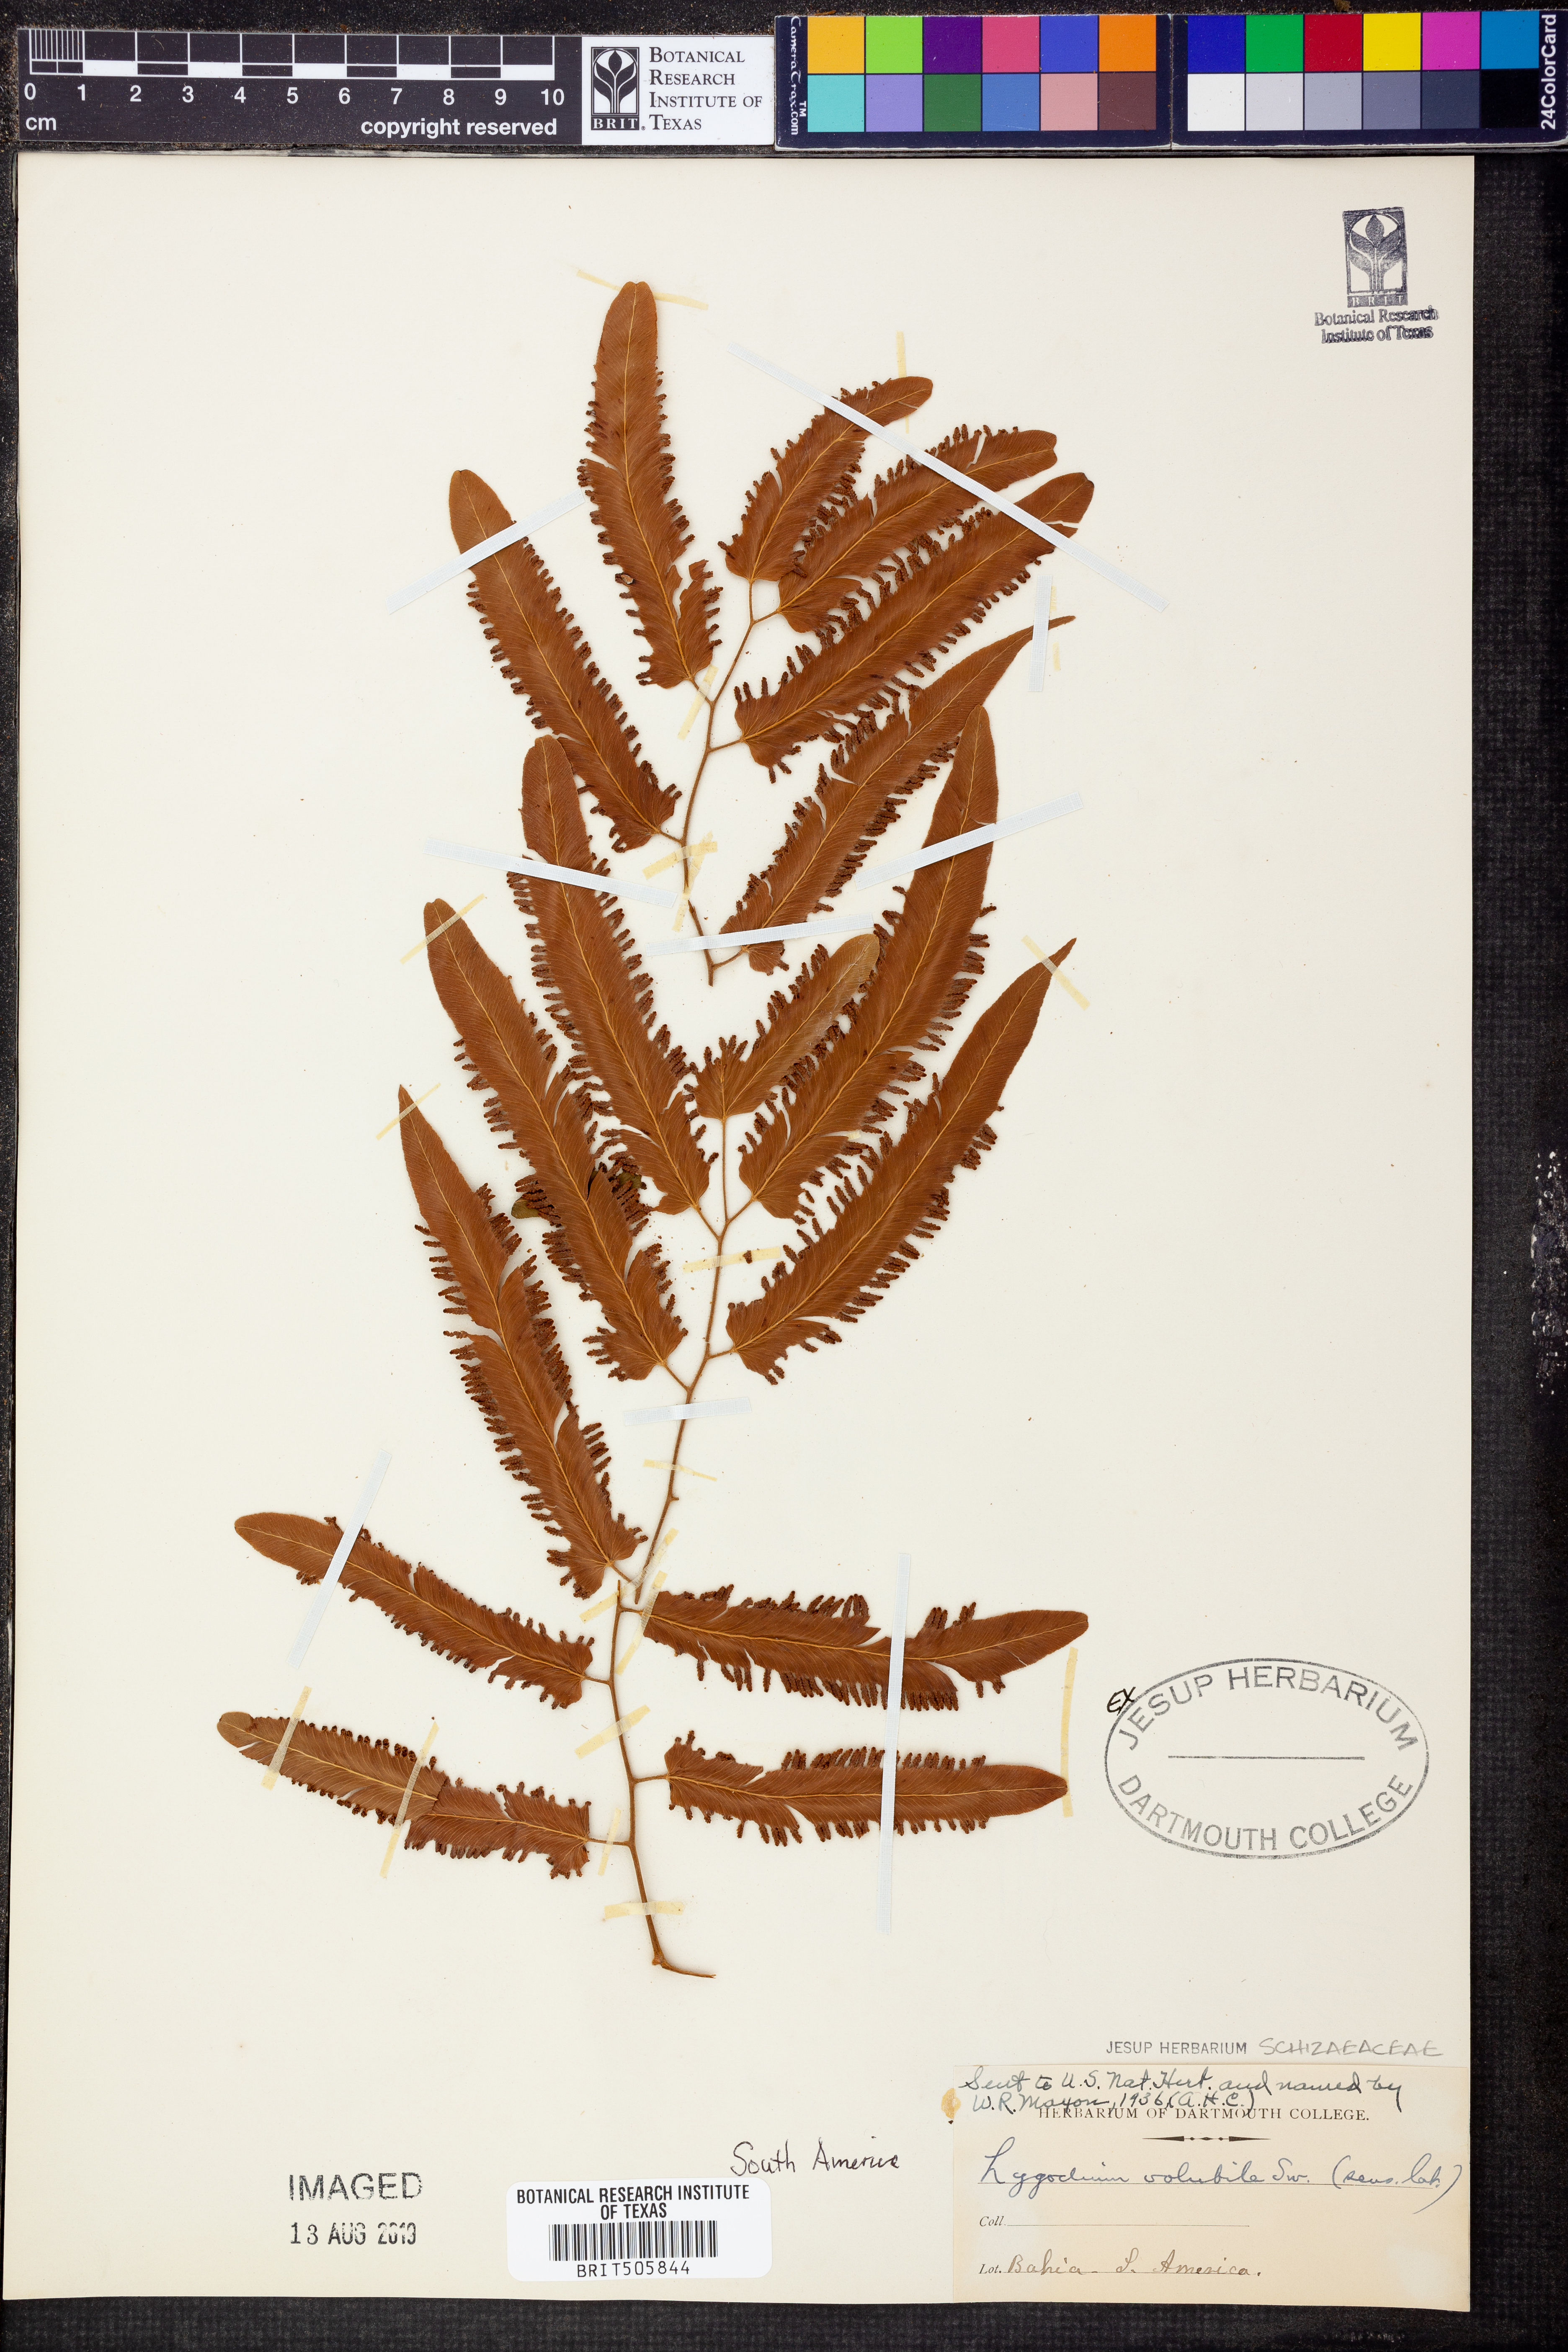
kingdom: Plantae
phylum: Tracheophyta
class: Polypodiopsida
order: Schizaeales
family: Lygodiaceae
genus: Lygodium
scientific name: Lygodium volubile
